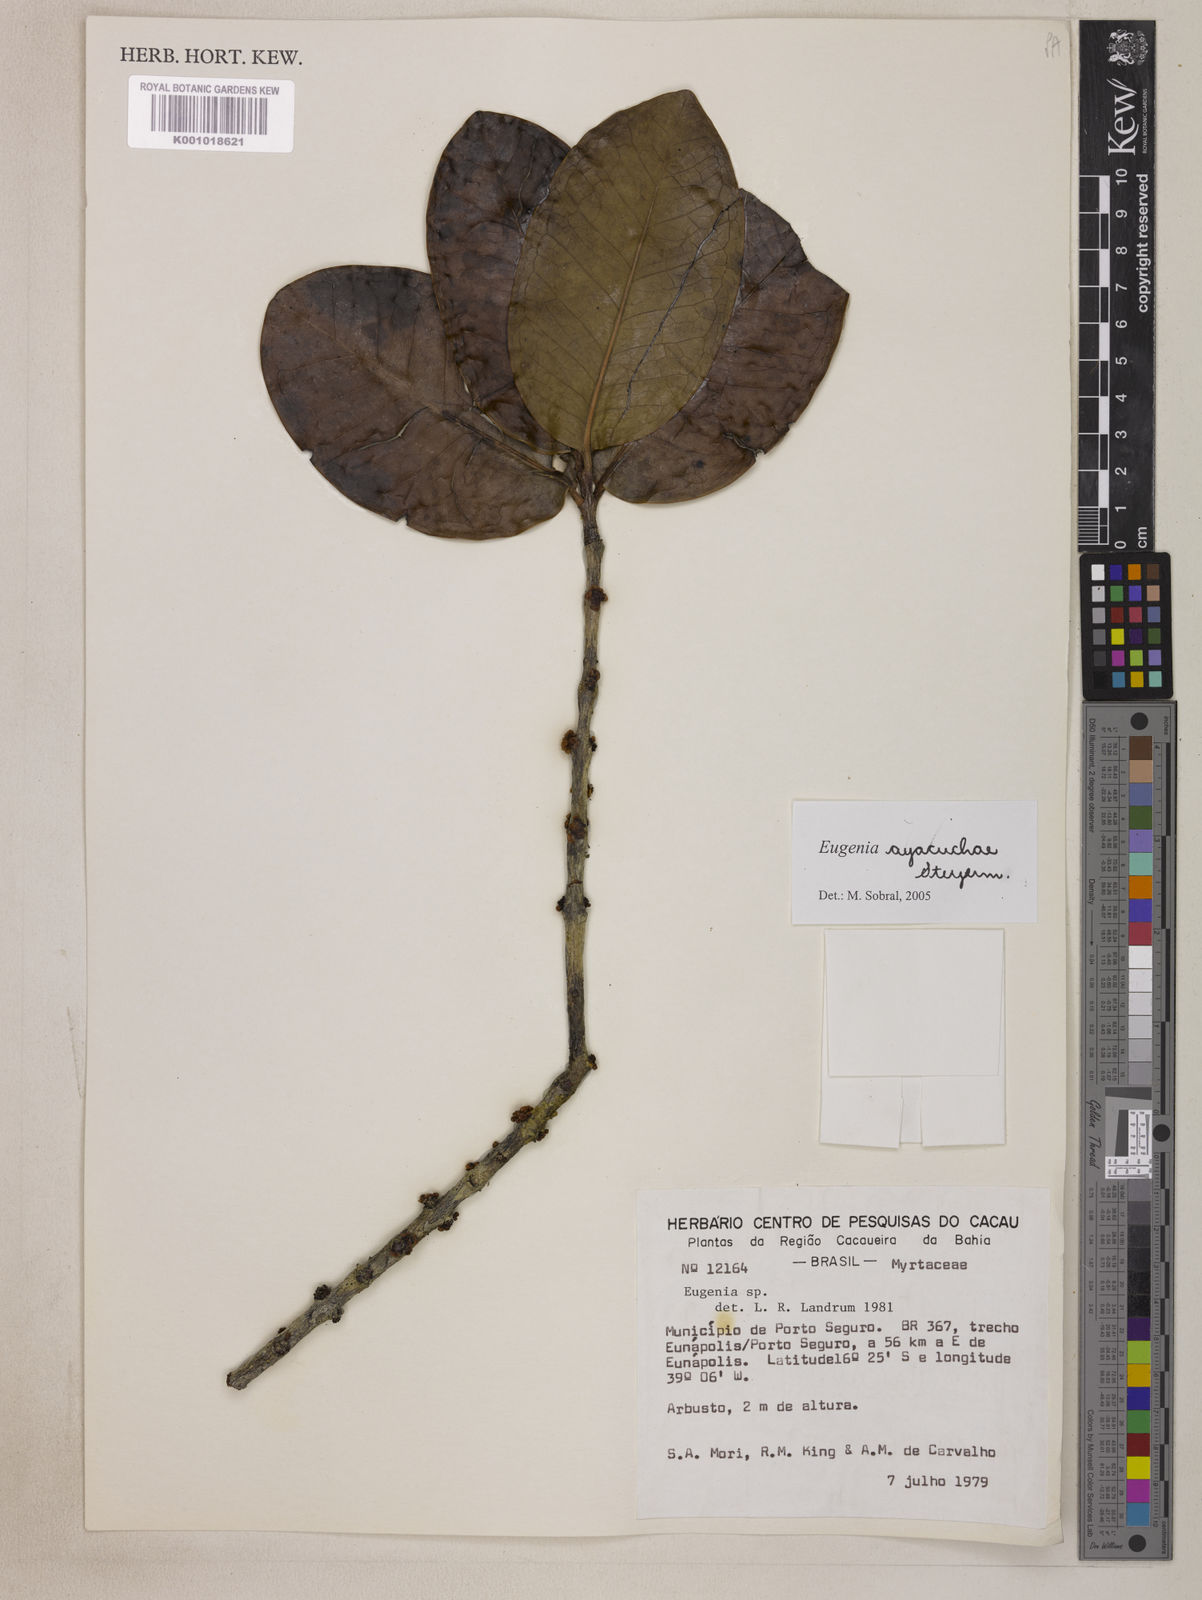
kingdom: Plantae
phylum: Tracheophyta
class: Magnoliopsida
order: Myrtales
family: Myrtaceae
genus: Eugenia
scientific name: Eugenia ayacuchae
